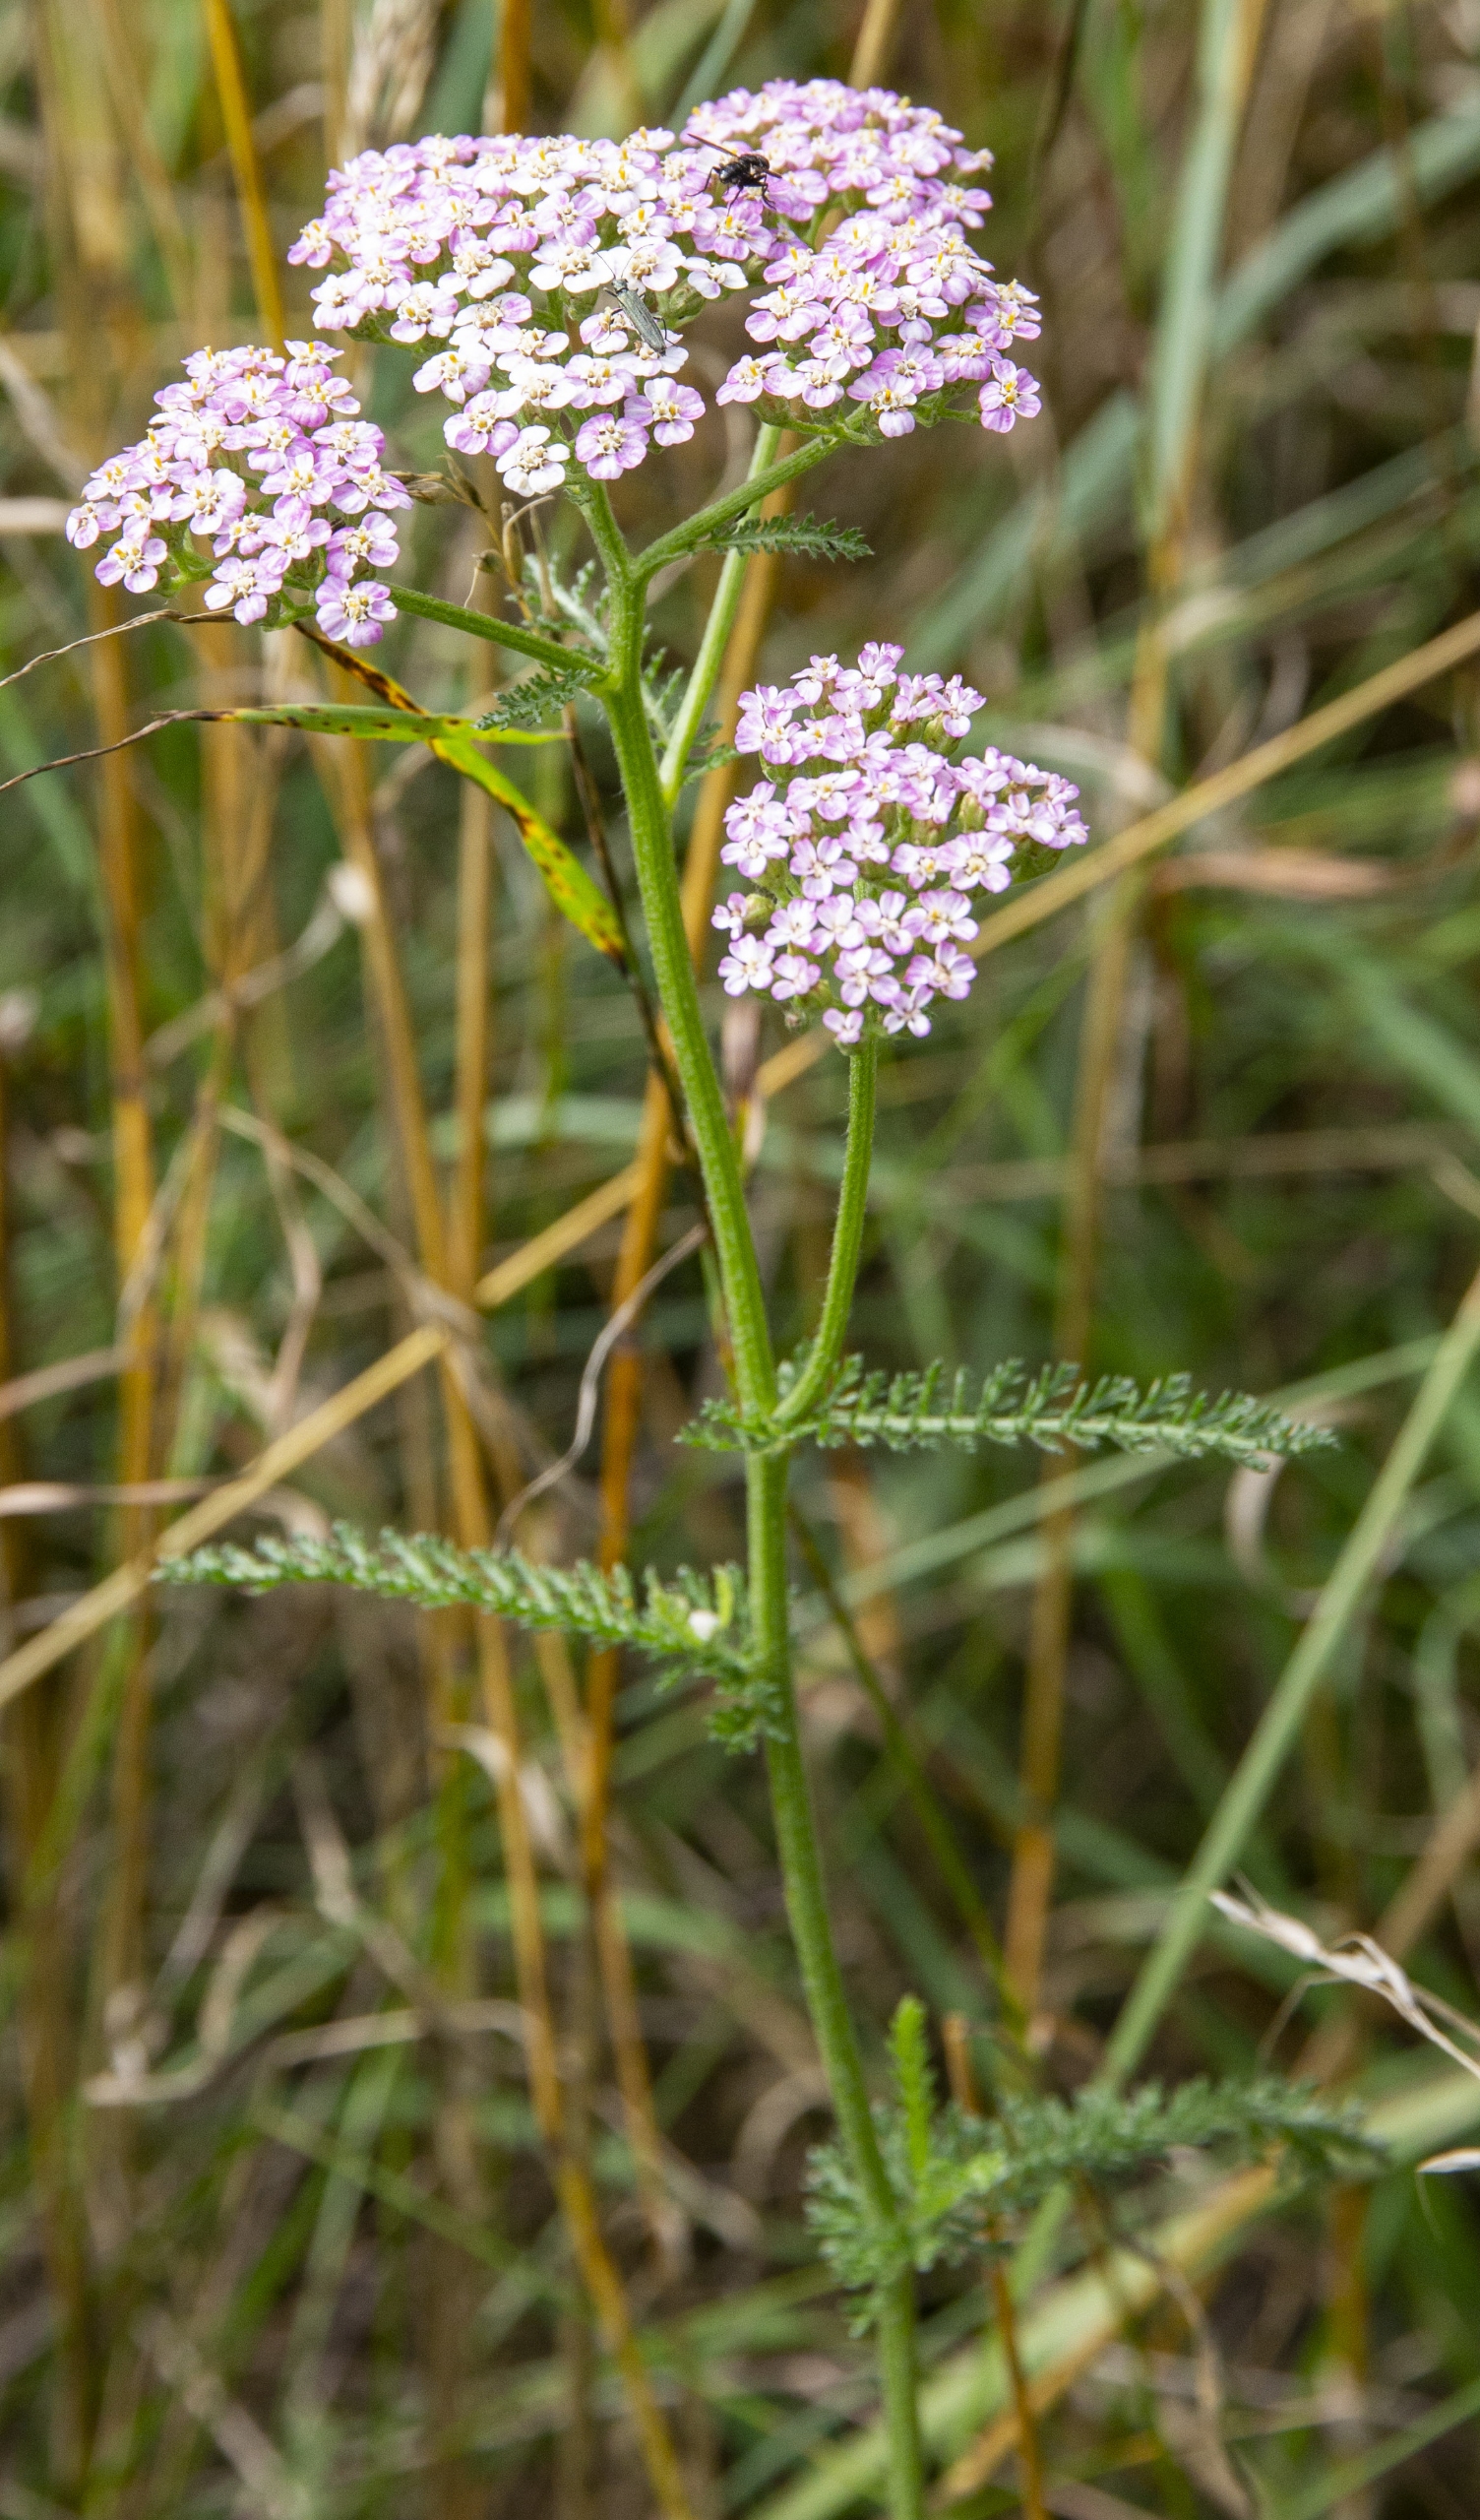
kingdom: Plantae
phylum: Tracheophyta
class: Magnoliopsida
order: Asterales
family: Asteraceae
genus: Achillea
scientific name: Achillea millefolium
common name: Almindelig røllike
